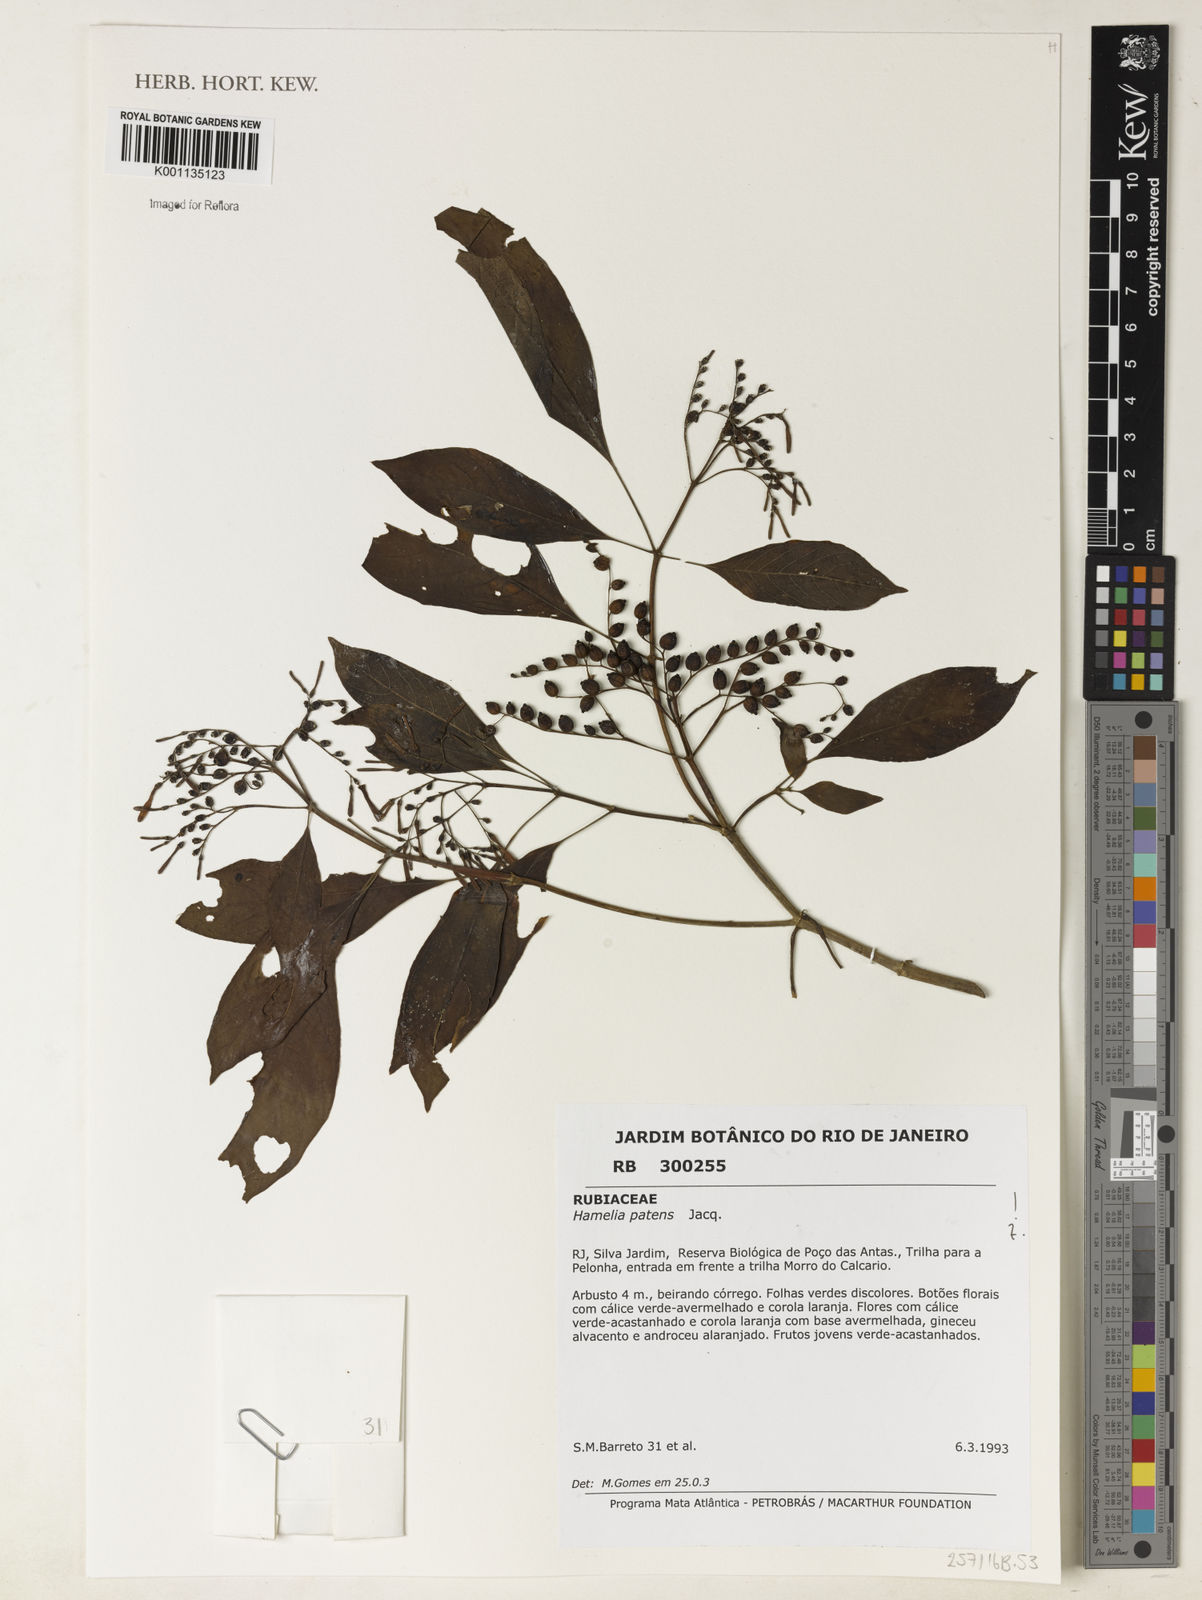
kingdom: Plantae
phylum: Tracheophyta
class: Magnoliopsida
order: Gentianales
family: Rubiaceae
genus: Hamelia
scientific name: Hamelia patens
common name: Redhead
